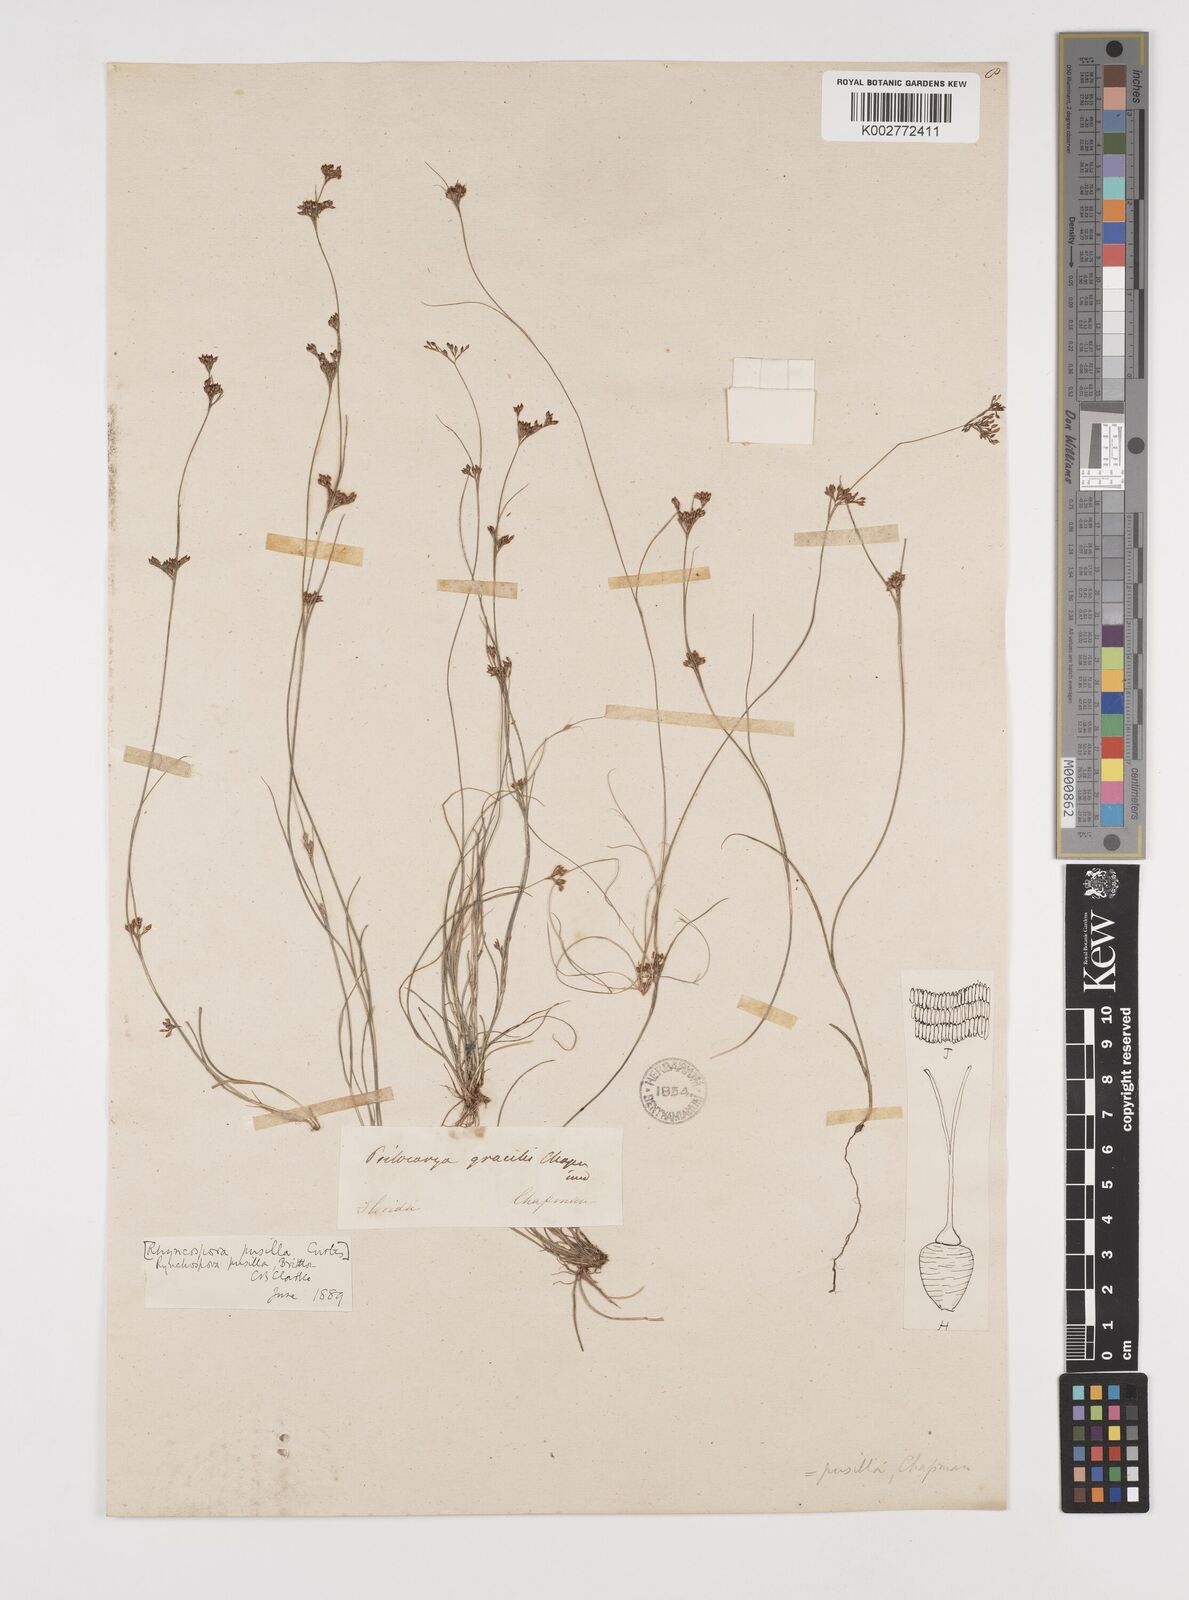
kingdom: Plantae
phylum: Tracheophyta
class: Liliopsida
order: Poales
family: Cyperaceae
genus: Rhynchospora
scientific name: Rhynchospora intermixta
